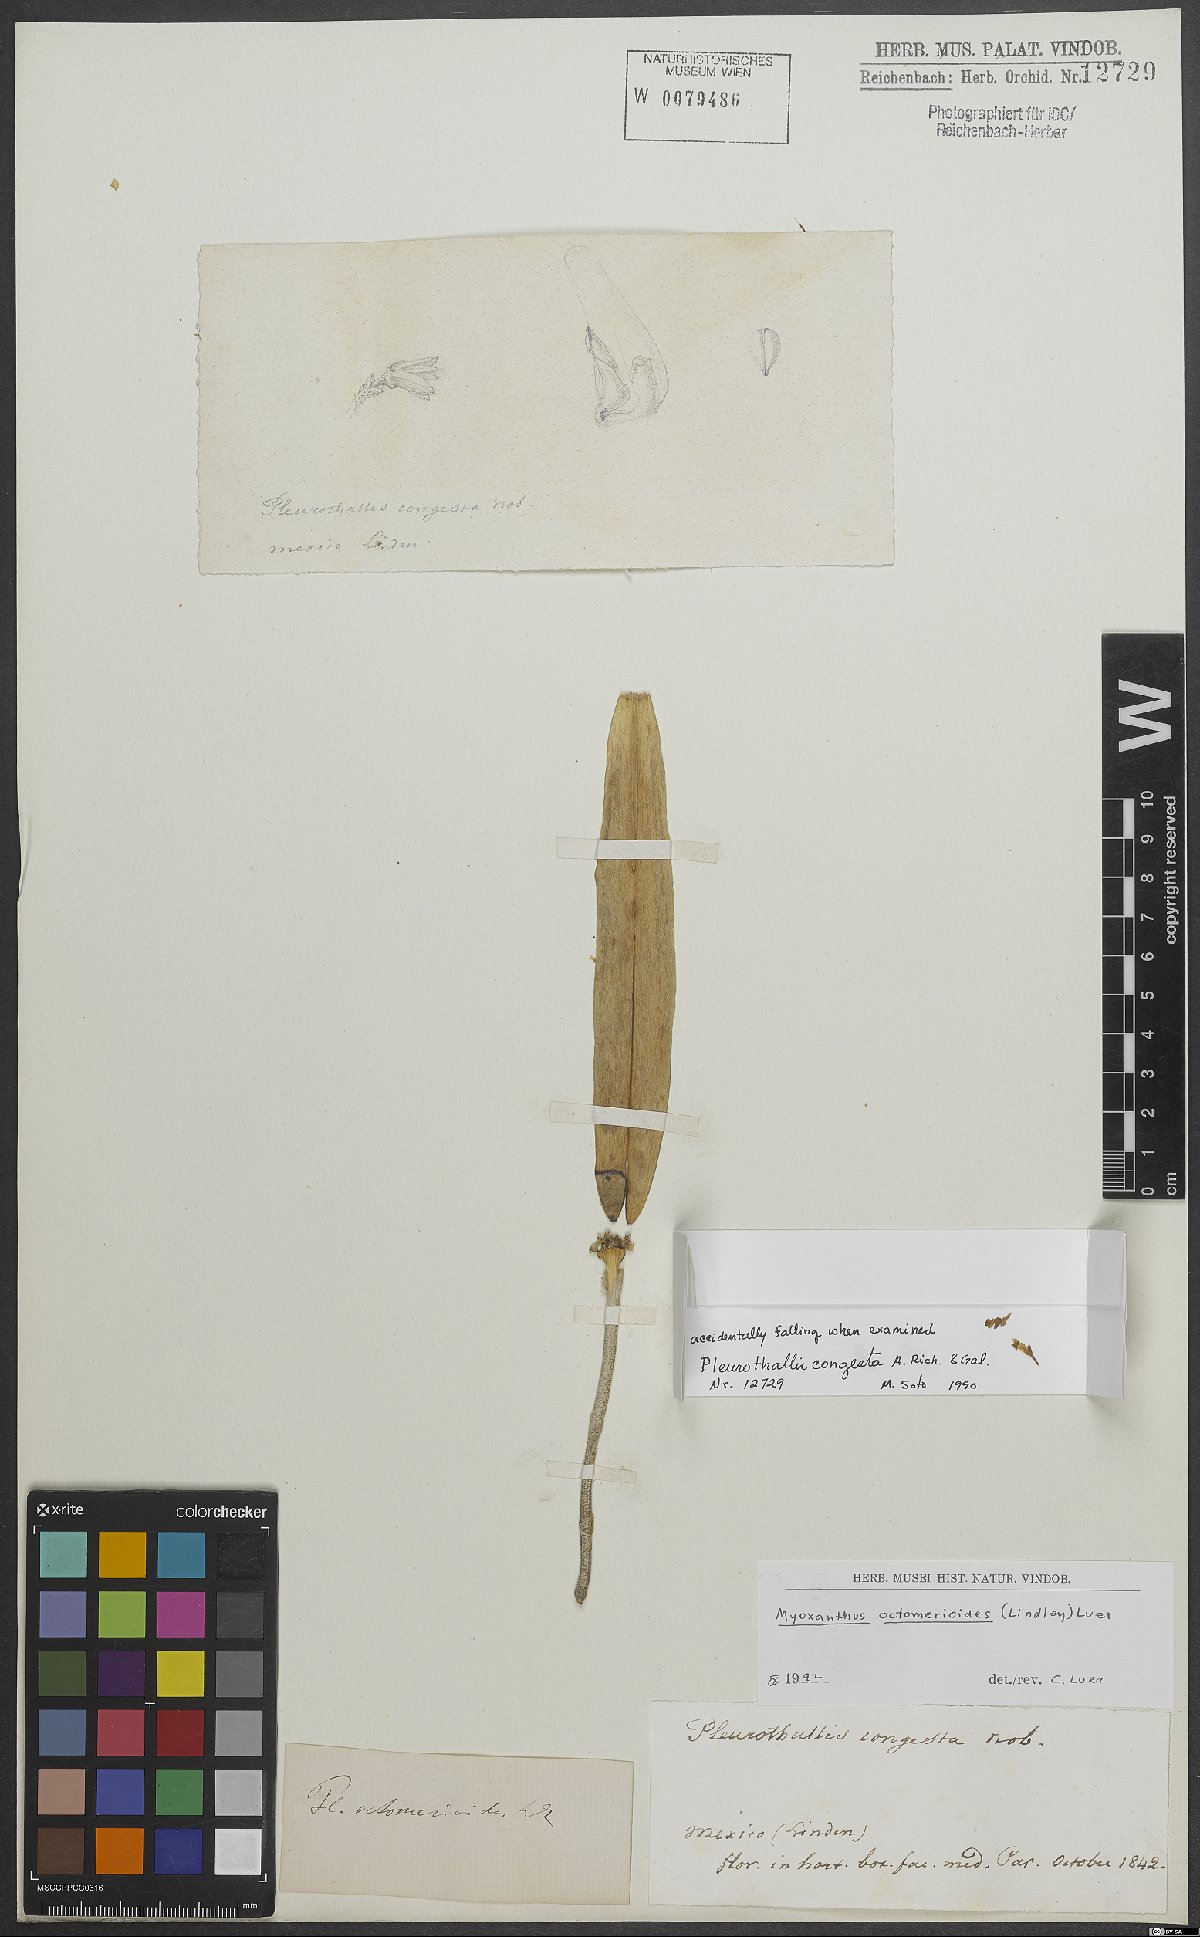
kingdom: Plantae
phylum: Tracheophyta
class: Liliopsida
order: Asparagales
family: Orchidaceae
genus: Myoxanthus
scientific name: Myoxanthus octomerioides
